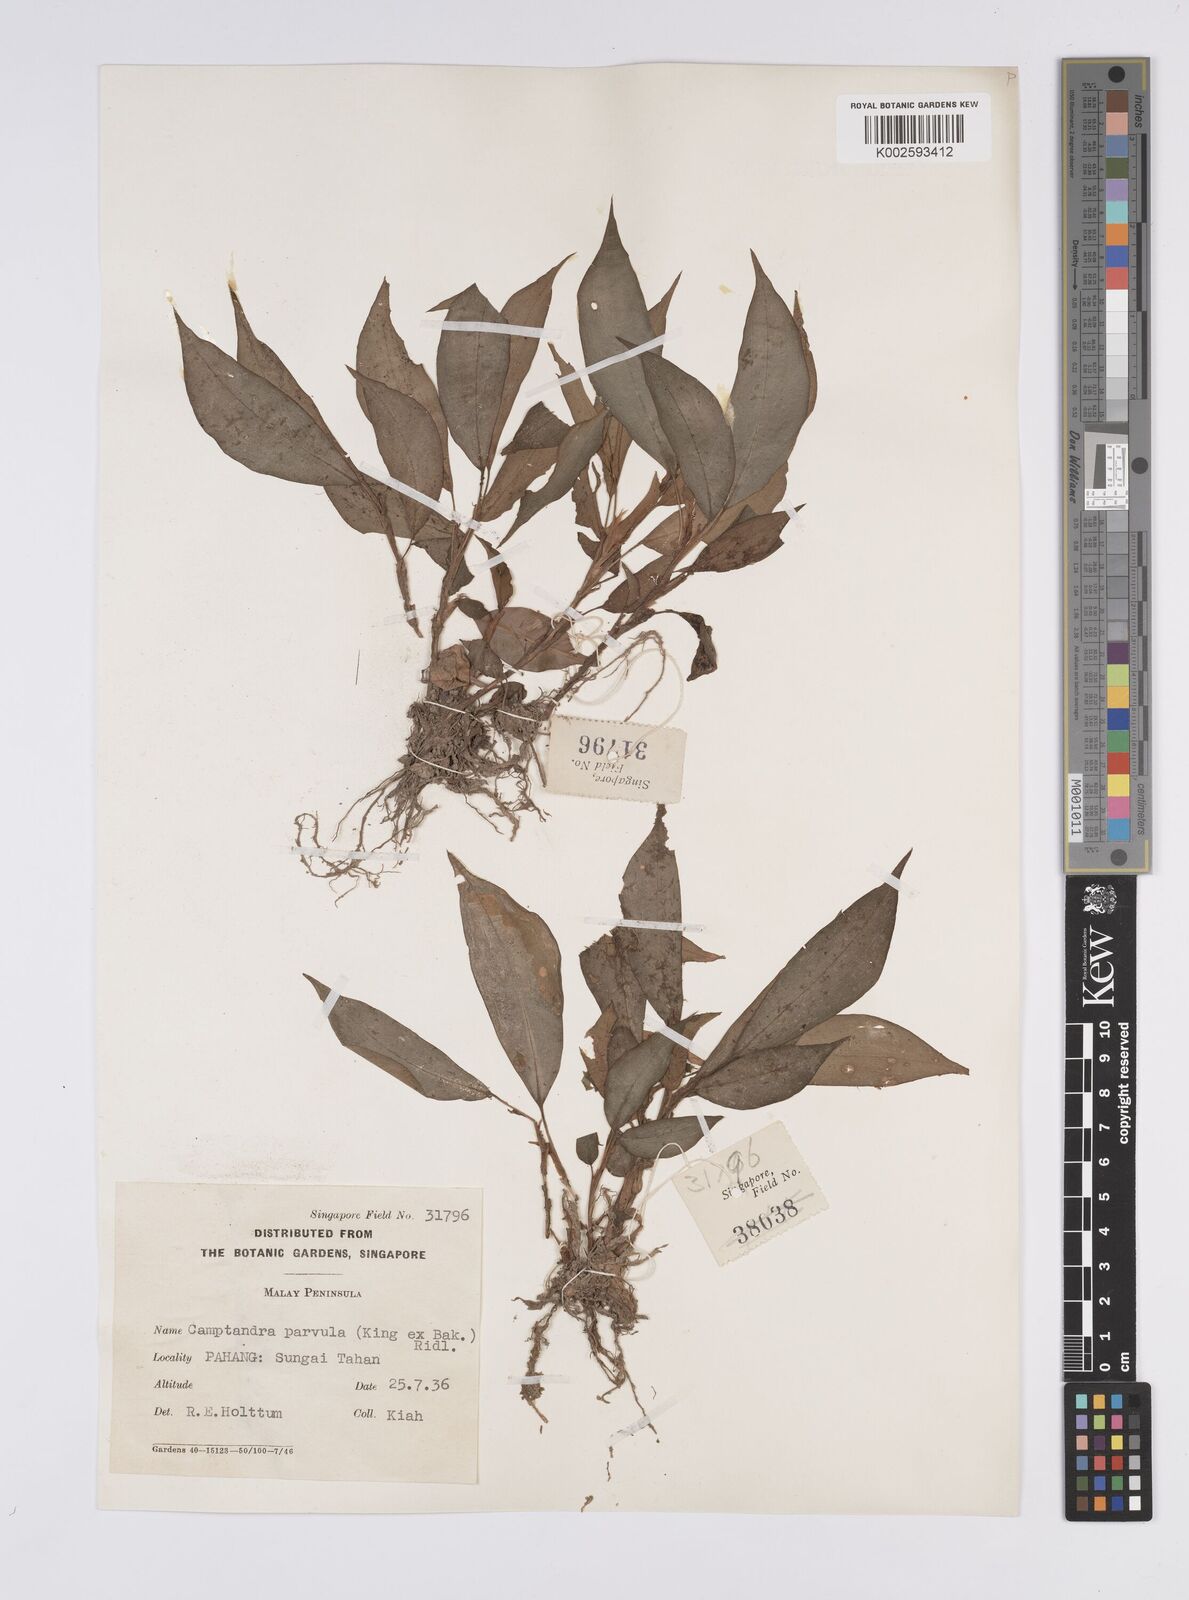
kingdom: Plantae
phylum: Tracheophyta
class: Liliopsida
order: Zingiberales
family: Zingiberaceae
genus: Camptandra
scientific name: Camptandra parvula
